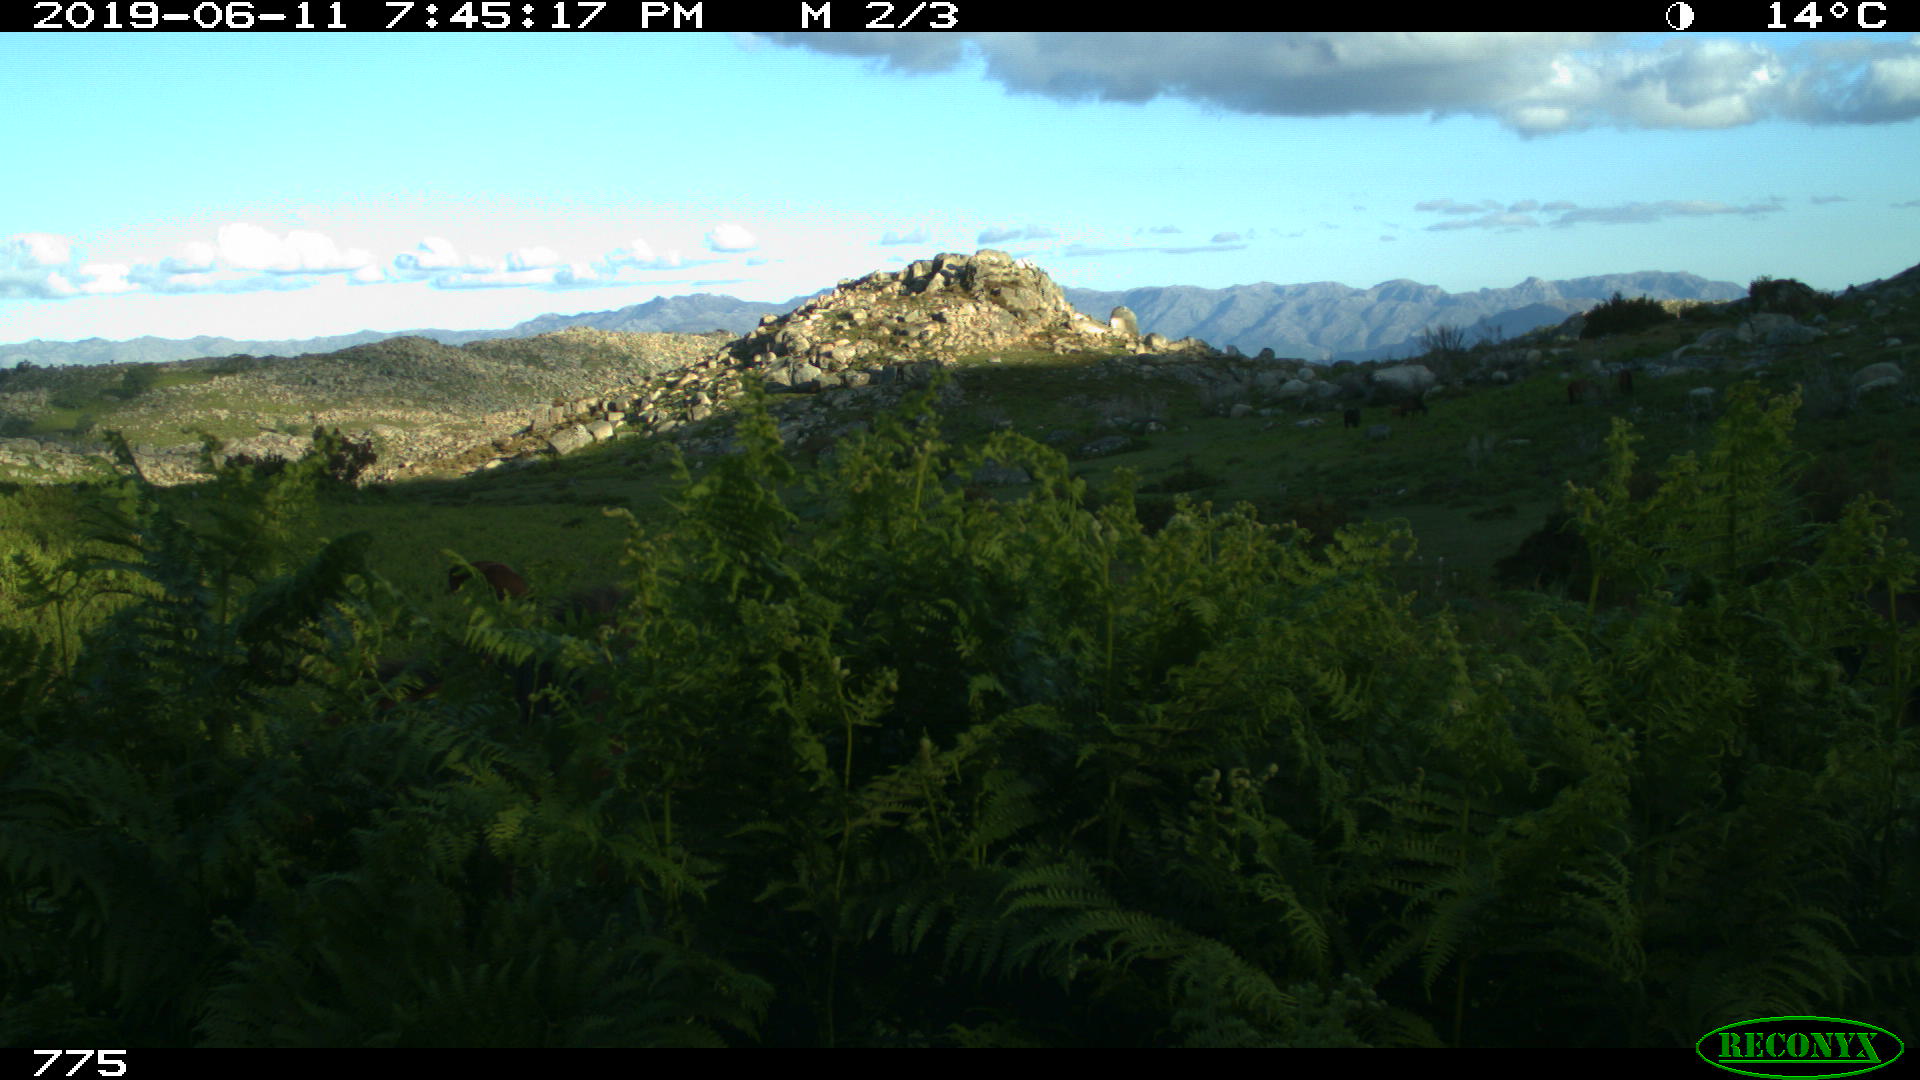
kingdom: Animalia
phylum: Chordata
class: Mammalia
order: Perissodactyla
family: Equidae
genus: Equus
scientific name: Equus caballus
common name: Horse
